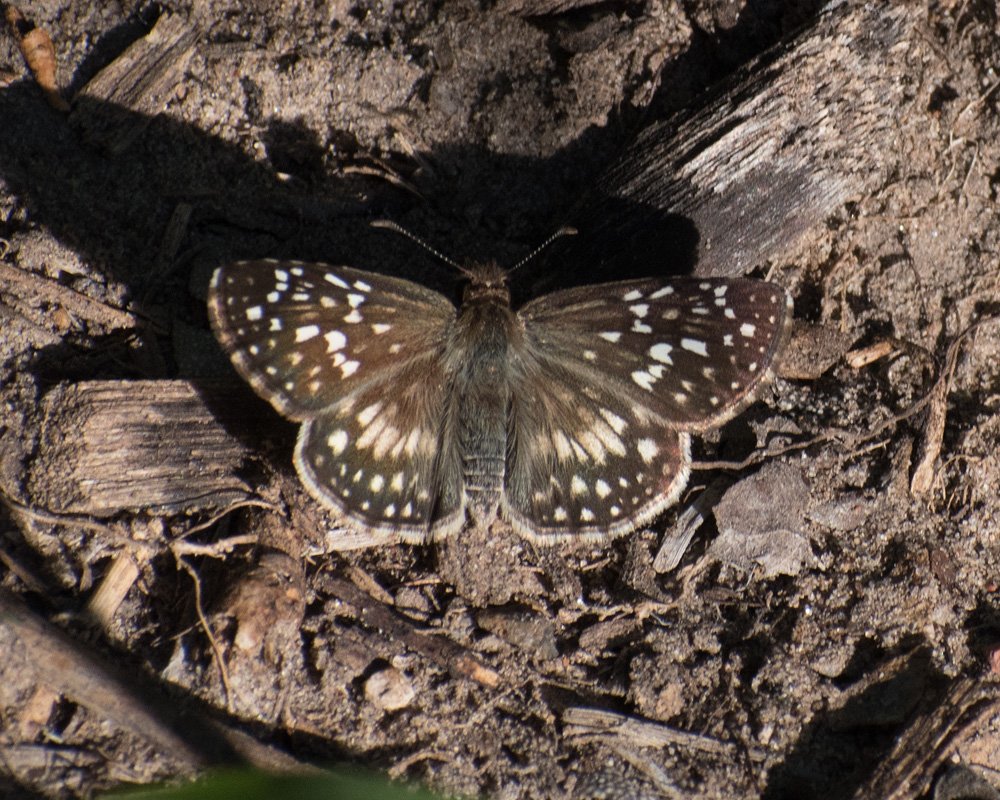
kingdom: Animalia
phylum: Arthropoda
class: Insecta
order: Lepidoptera
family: Hesperiidae
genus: Pyrgus
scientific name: Pyrgus
